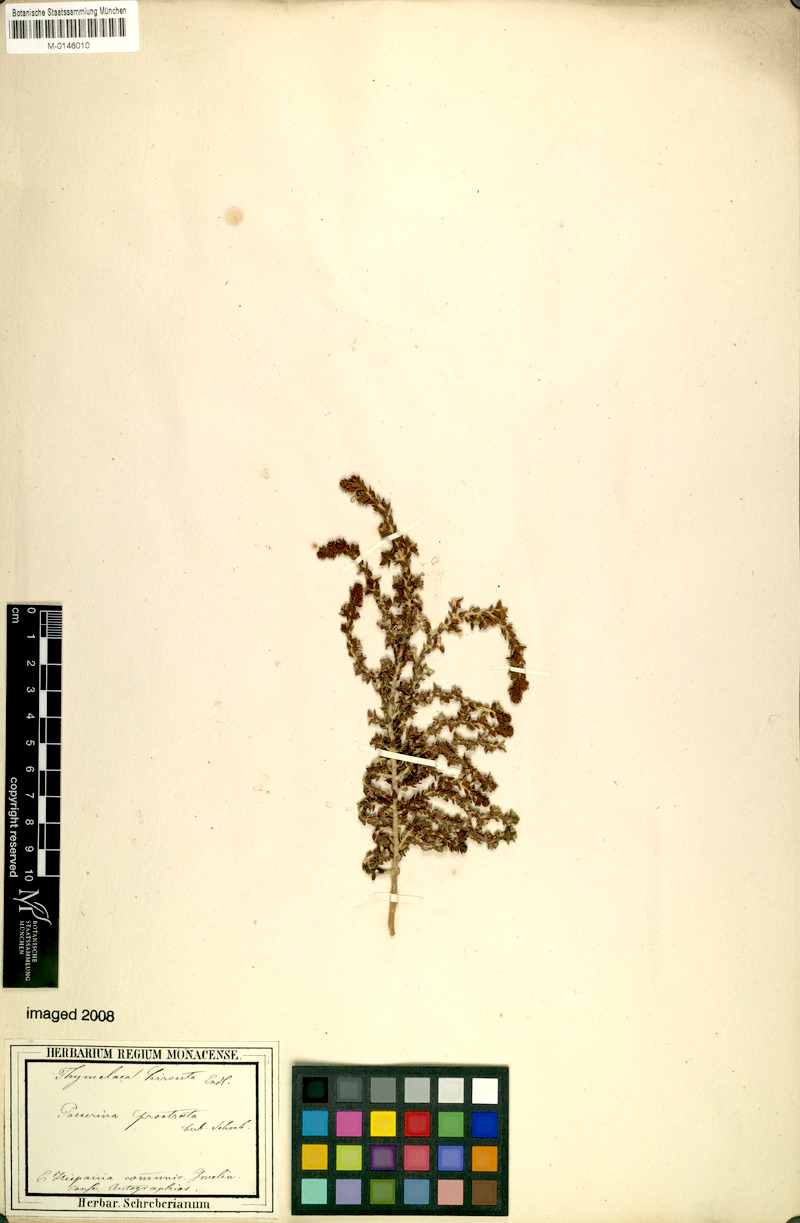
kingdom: Plantae
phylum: Tracheophyta
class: Magnoliopsida
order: Malvales
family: Thymelaeaceae
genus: Thymelaea
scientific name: Thymelaea hirsuta
